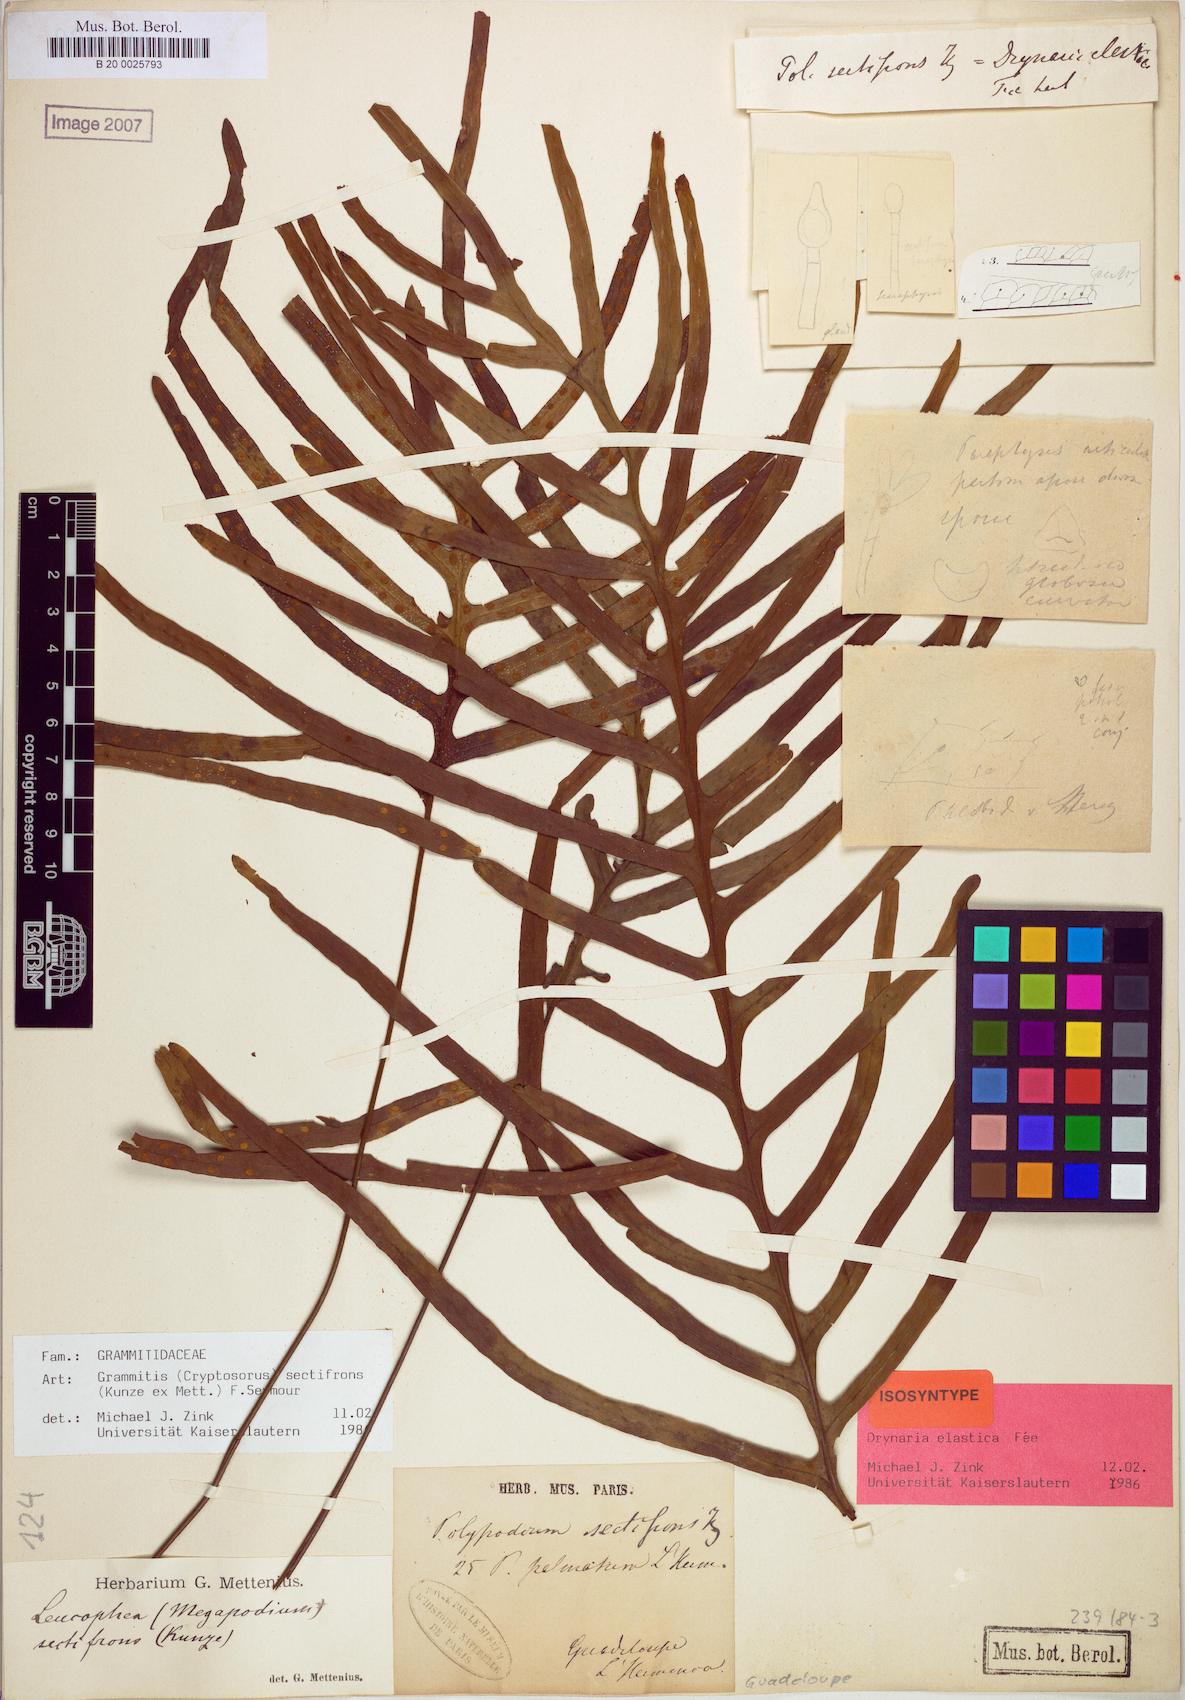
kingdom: Plantae
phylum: Tracheophyta
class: Polypodiopsida
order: Polypodiales
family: Polypodiaceae
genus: Enterosora
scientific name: Enterosora sectifrons
